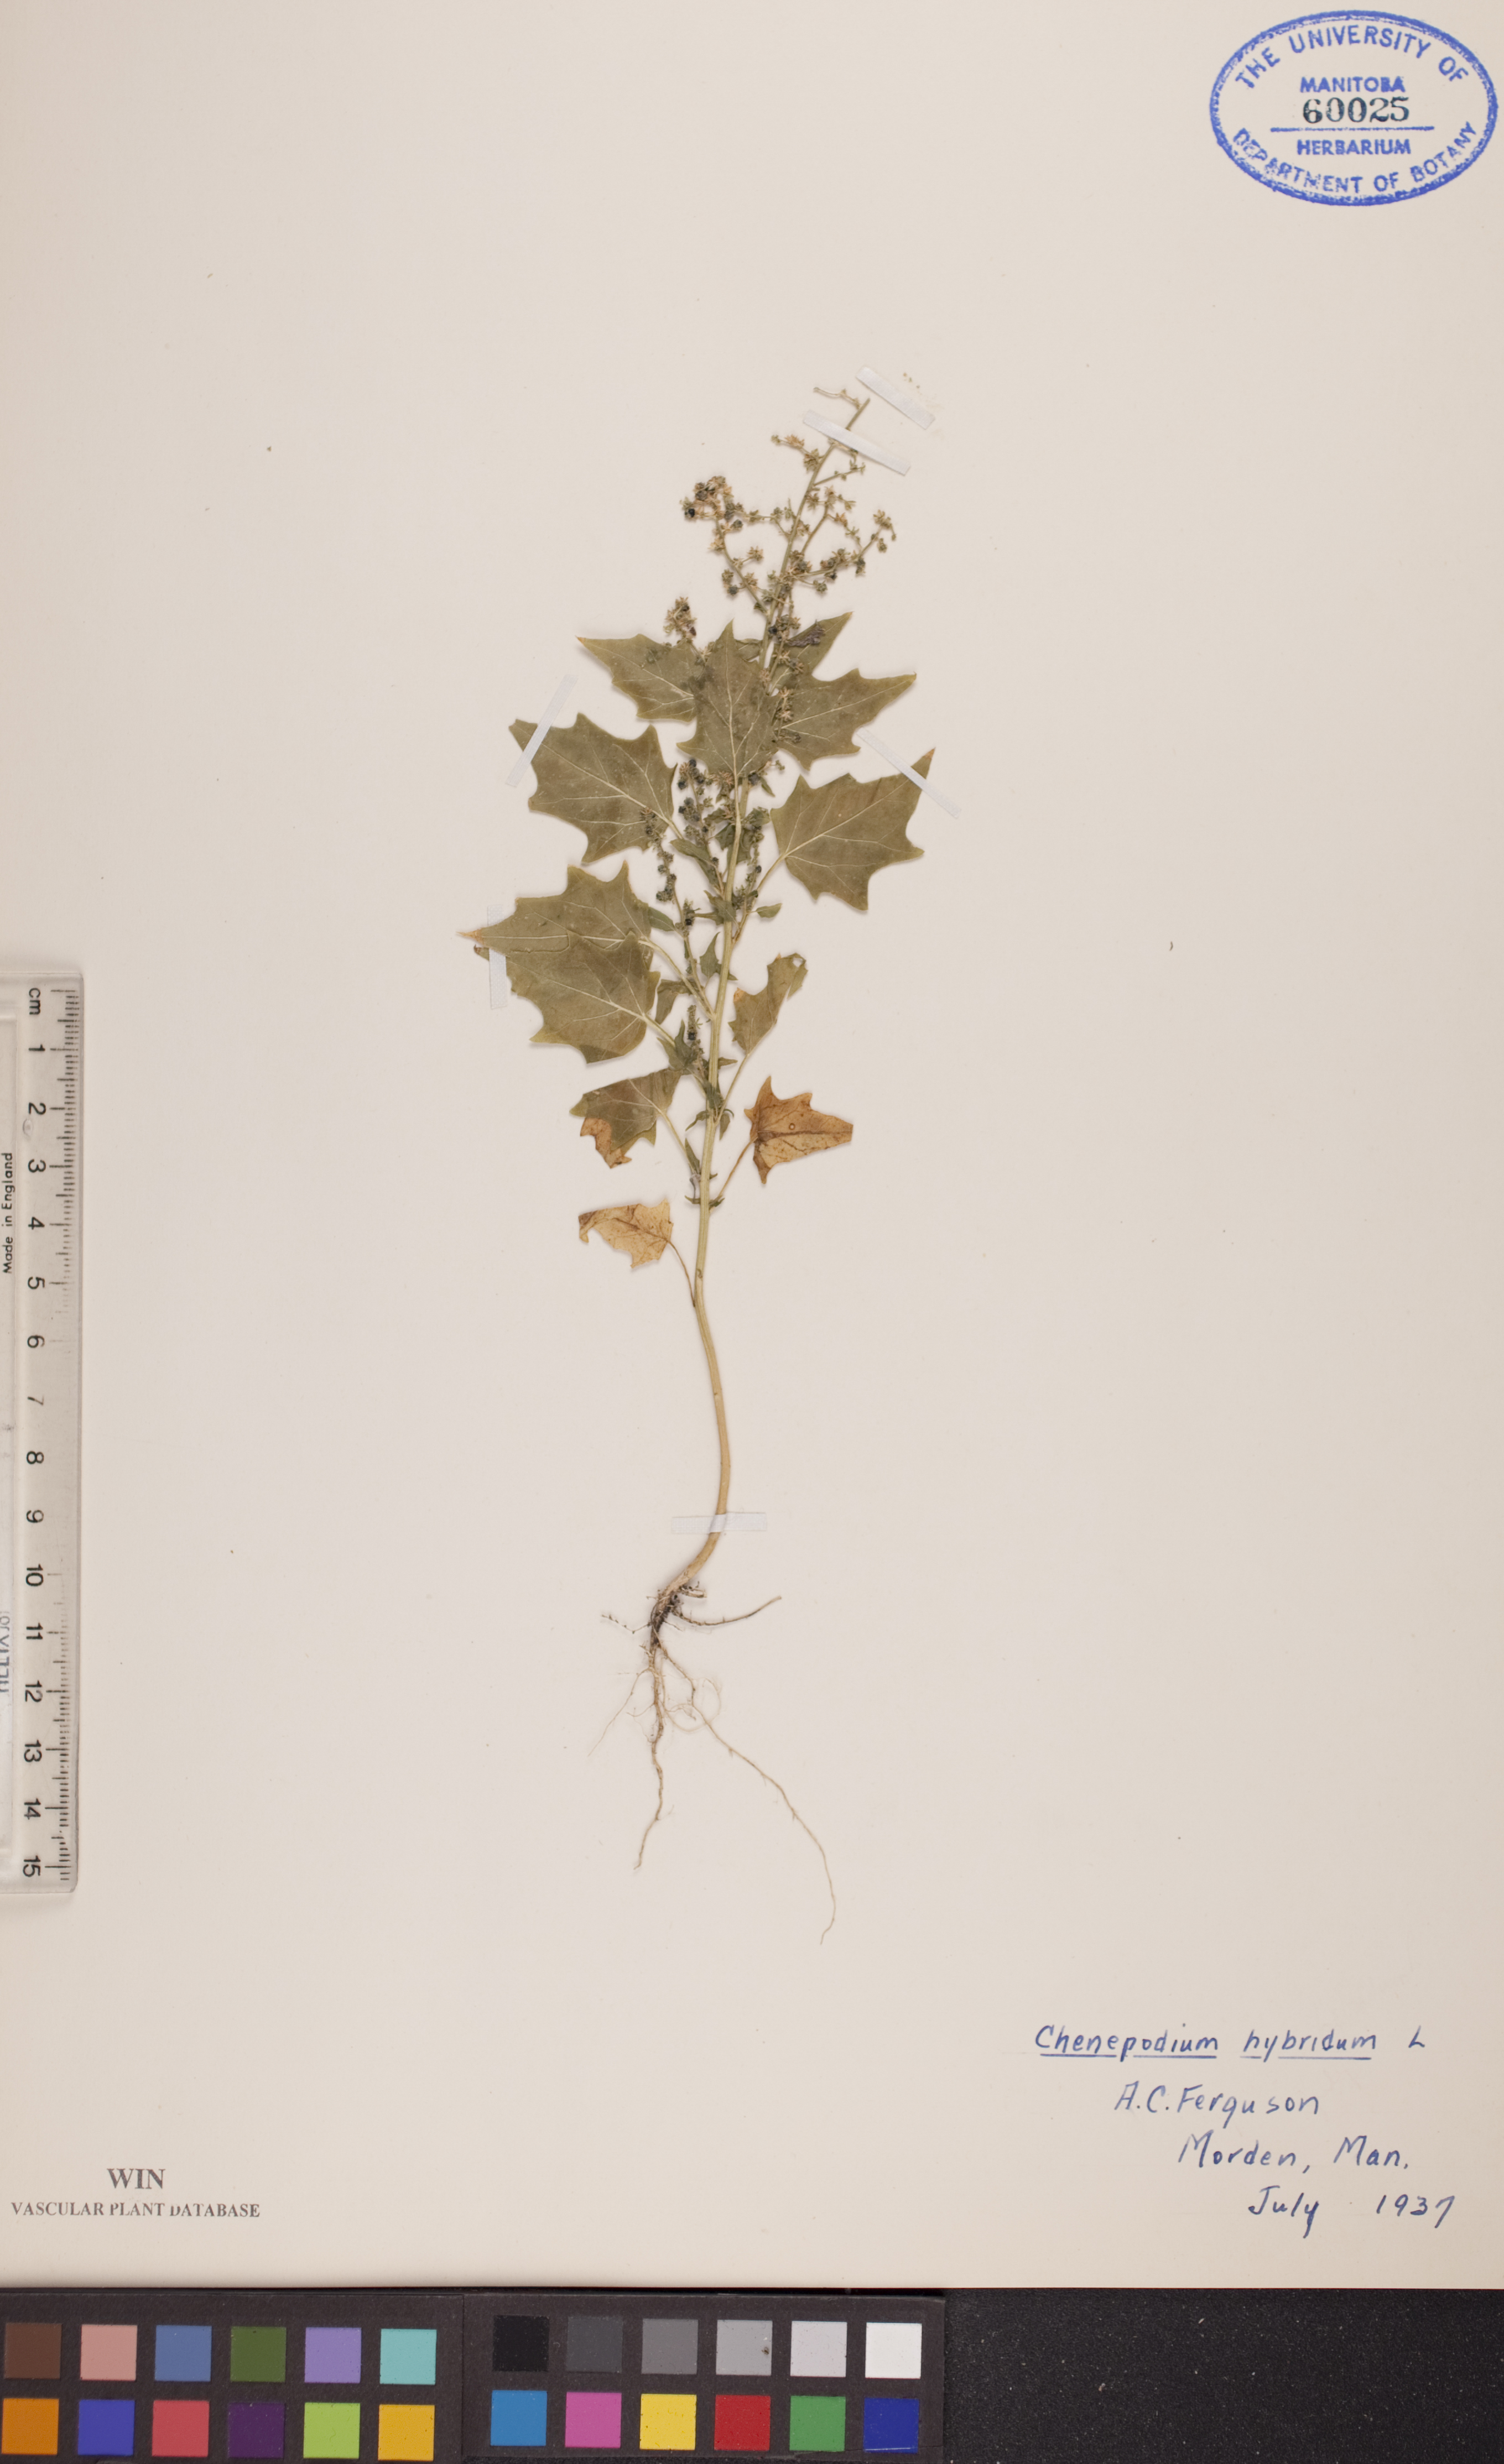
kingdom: Plantae
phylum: Tracheophyta
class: Magnoliopsida
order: Caryophyllales
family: Amaranthaceae
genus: Chenopodiastrum
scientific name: Chenopodiastrum hybridum
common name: Mapleleaf goosefoot
